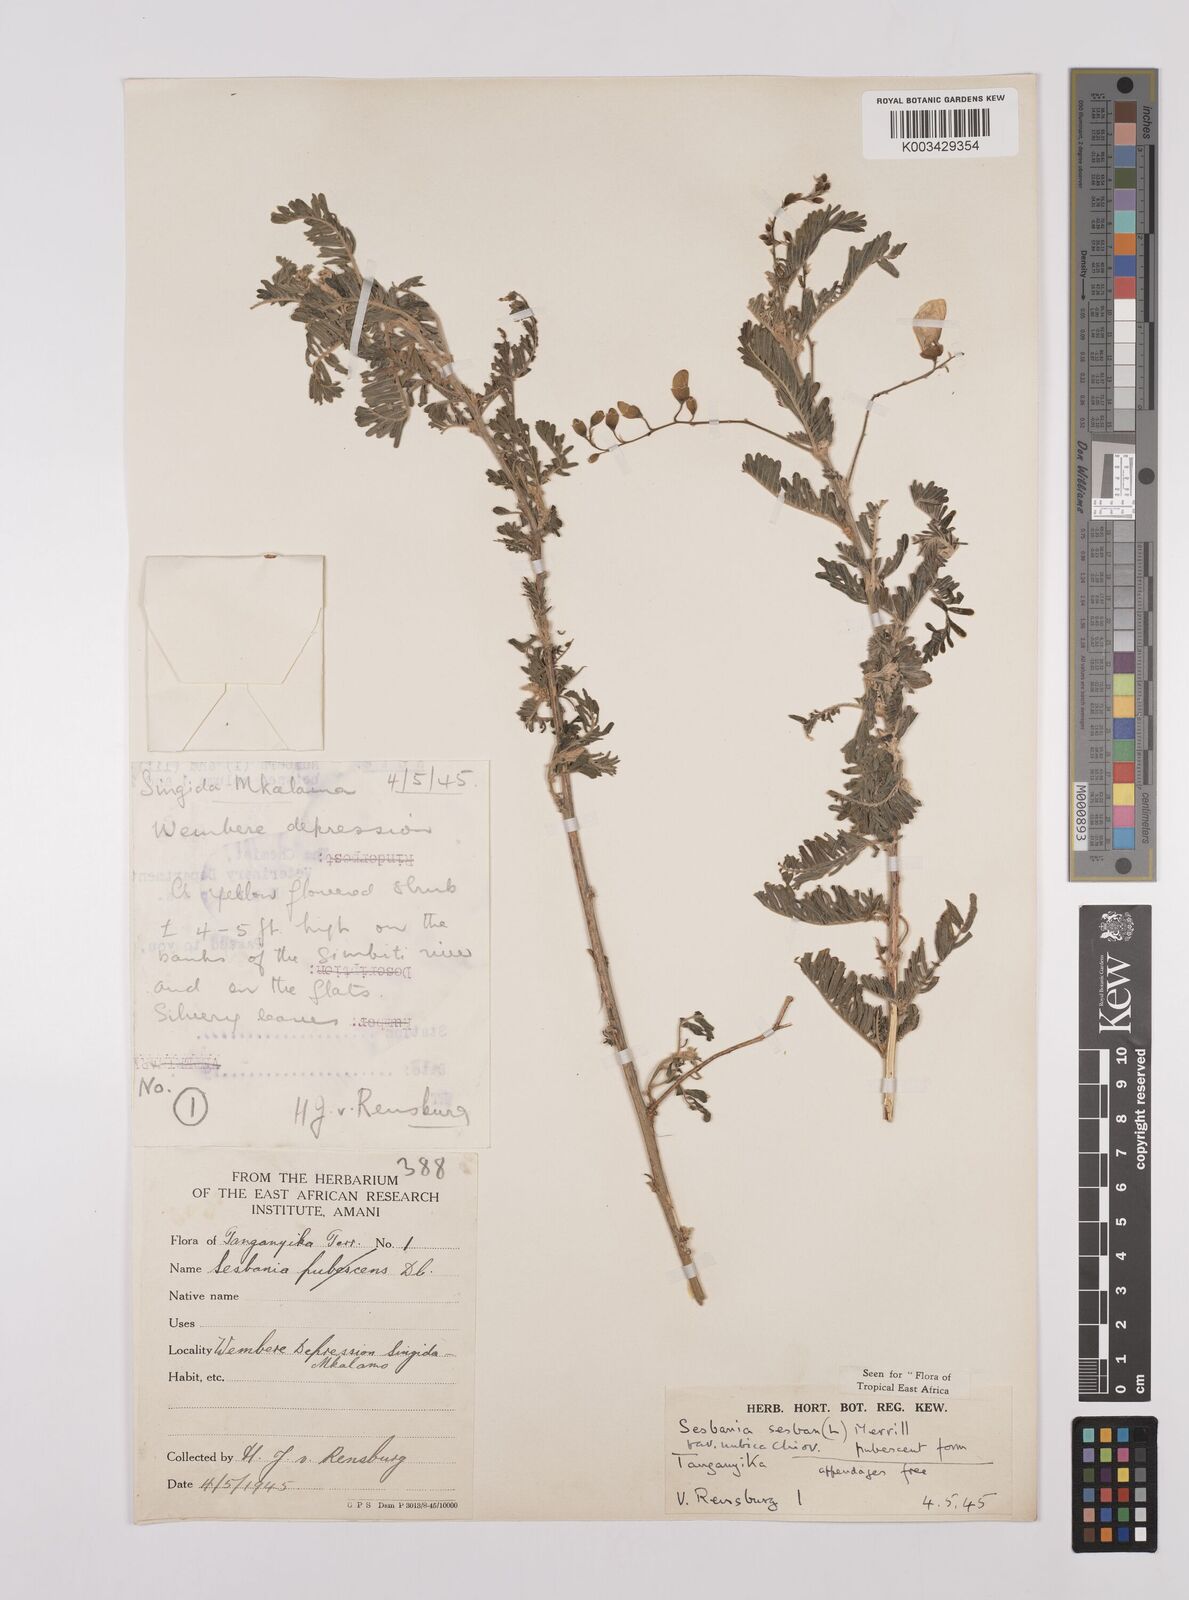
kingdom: Plantae
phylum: Tracheophyta
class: Magnoliopsida
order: Fabales
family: Fabaceae
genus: Sesbania
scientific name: Sesbania sesban
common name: Egyptian sesban
